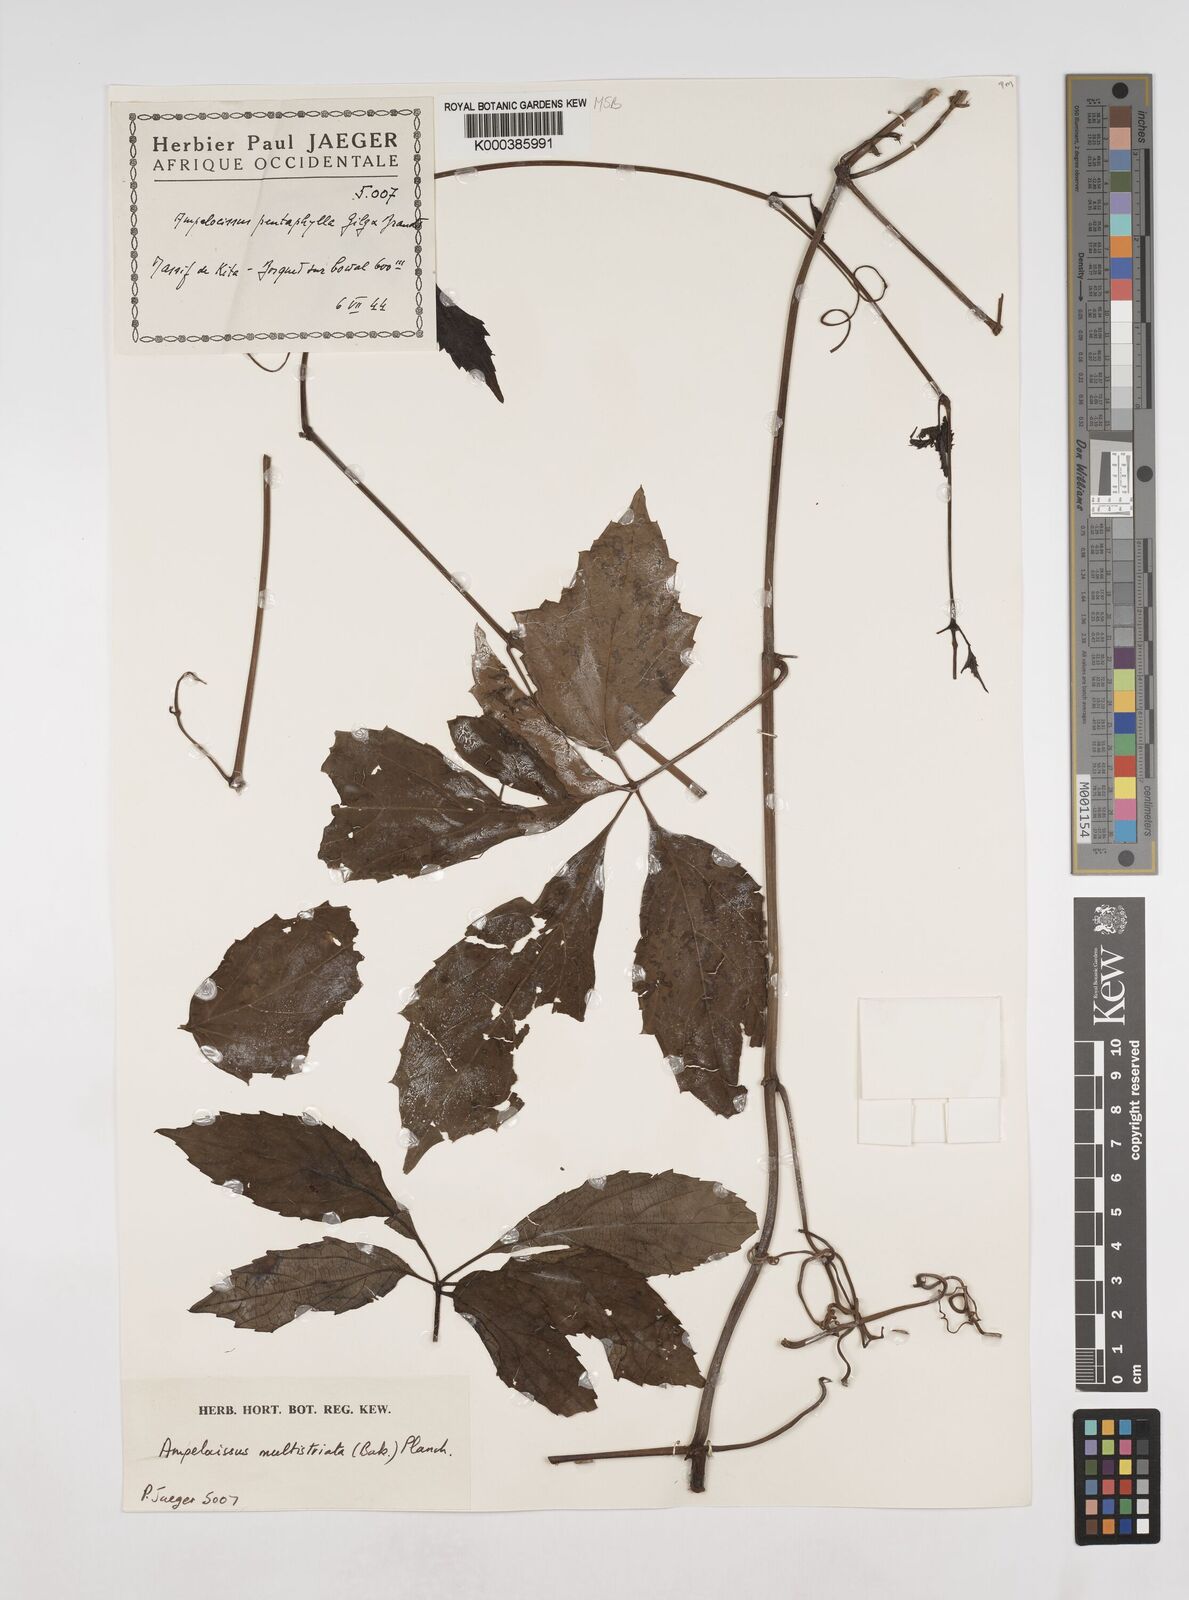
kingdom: Plantae
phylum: Tracheophyta
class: Magnoliopsida
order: Vitales
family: Vitaceae
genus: Ampelocissus
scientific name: Ampelocissus multistriata
